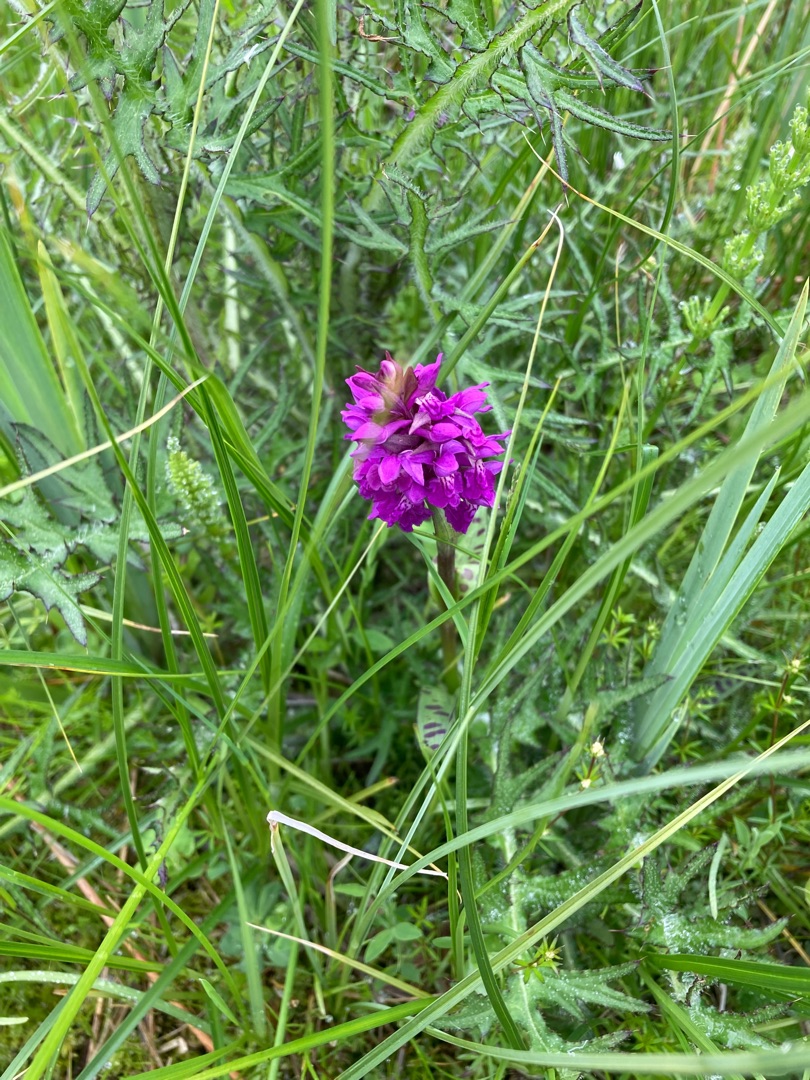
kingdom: Plantae
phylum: Tracheophyta
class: Liliopsida
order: Asparagales
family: Orchidaceae
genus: Dactylorhiza
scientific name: Dactylorhiza majalis
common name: Maj-gøgeurt
